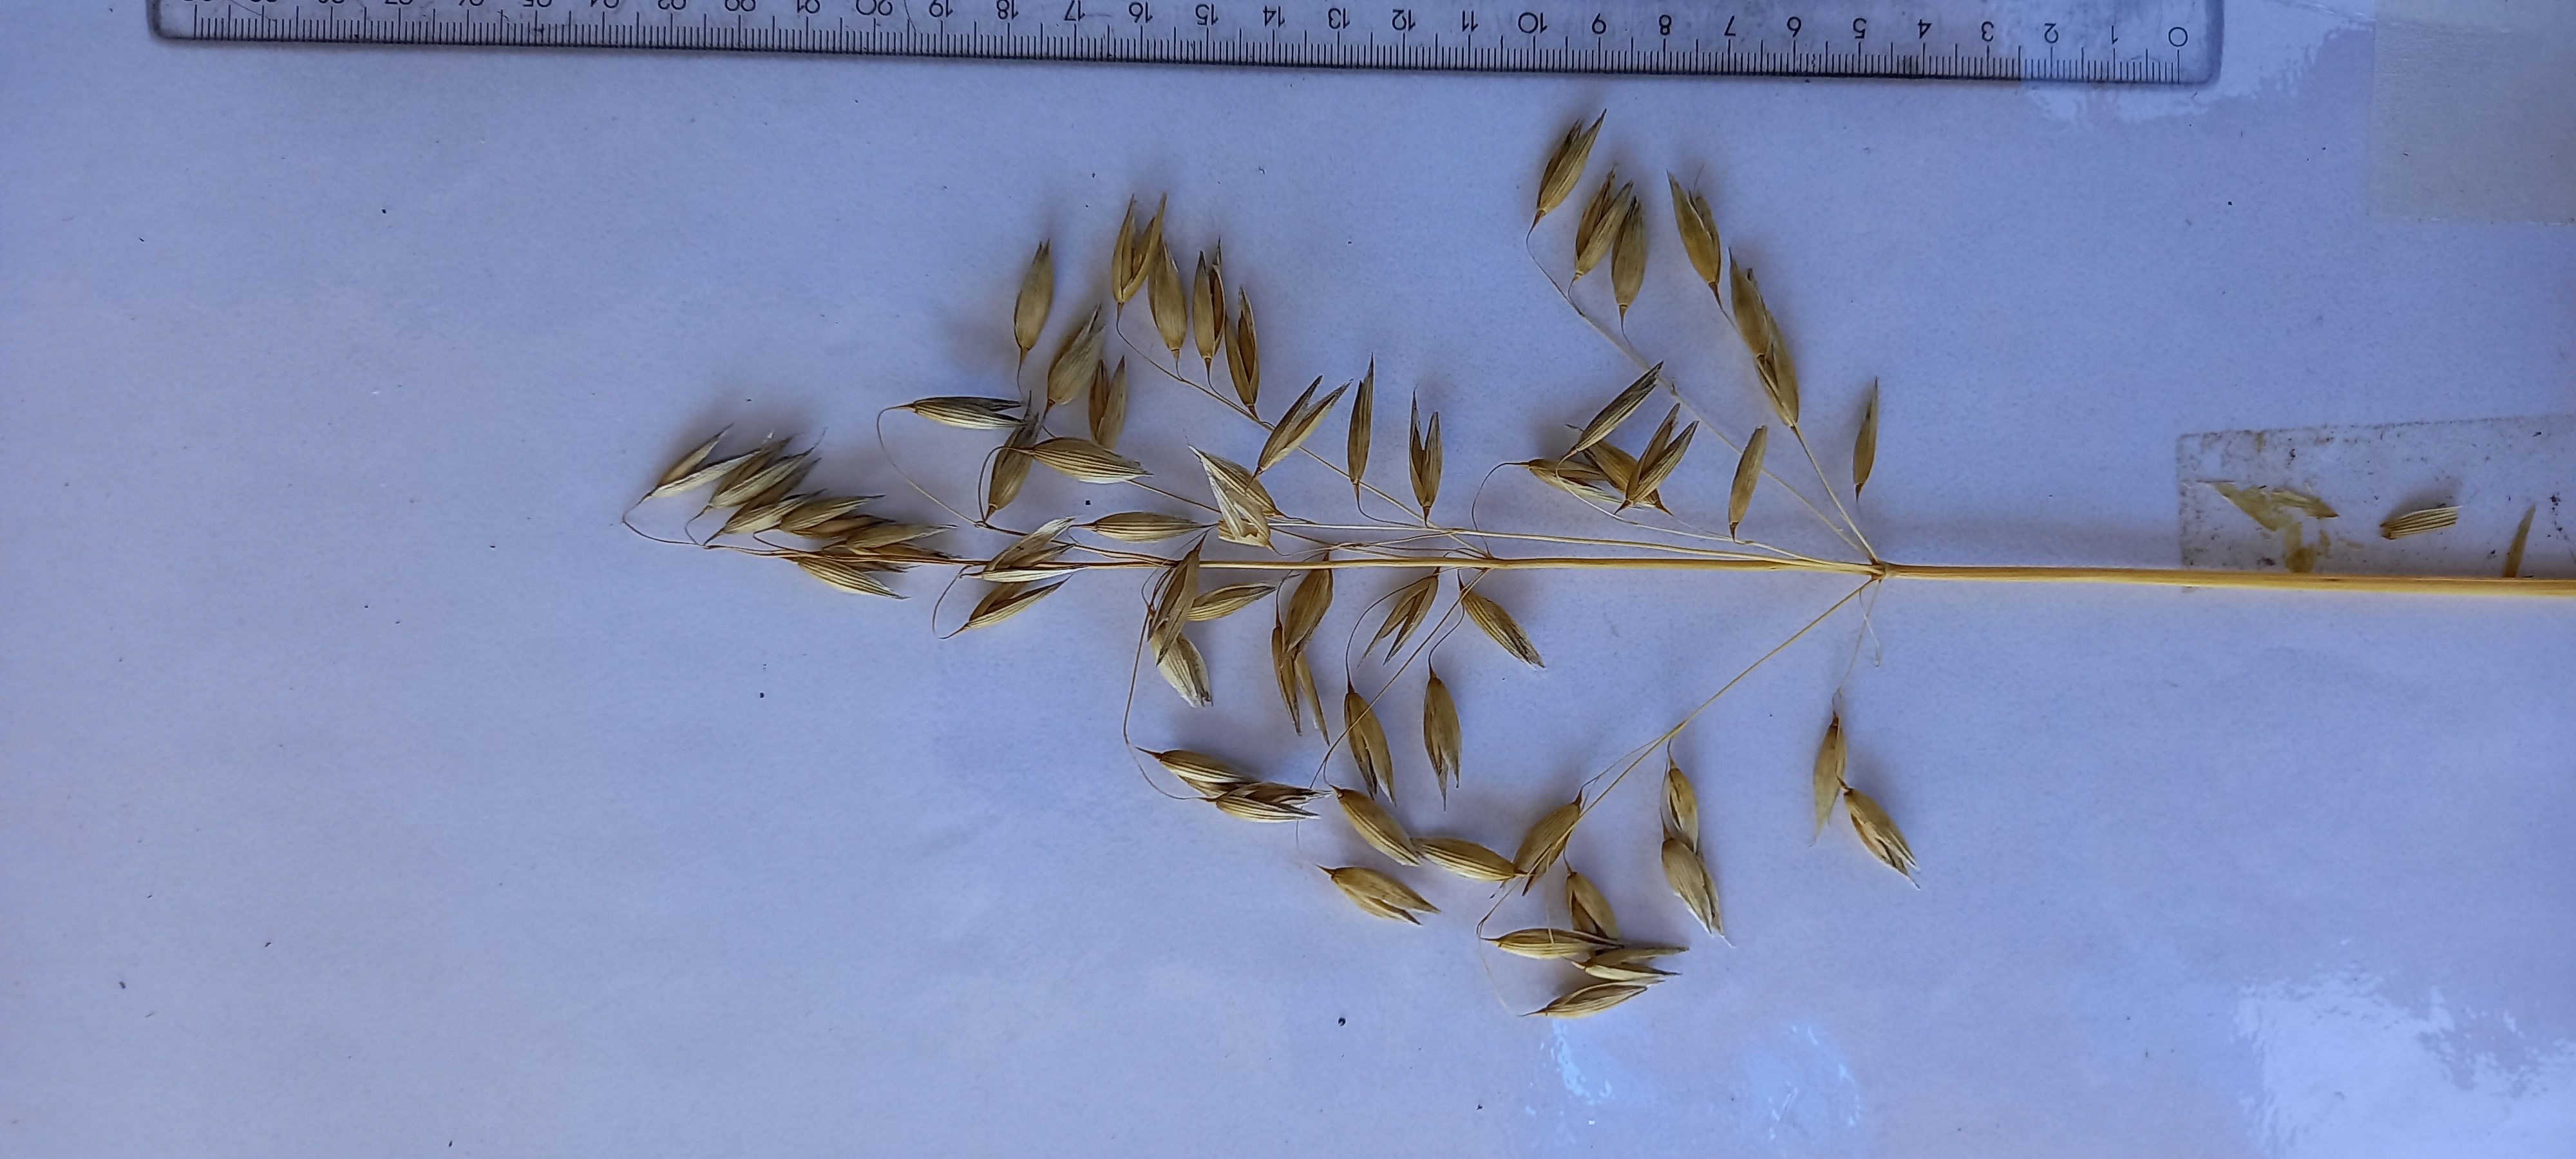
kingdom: Plantae
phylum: Tracheophyta
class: Liliopsida
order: Poales
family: Poaceae
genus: Avena
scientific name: Avena sativa
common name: Oat
